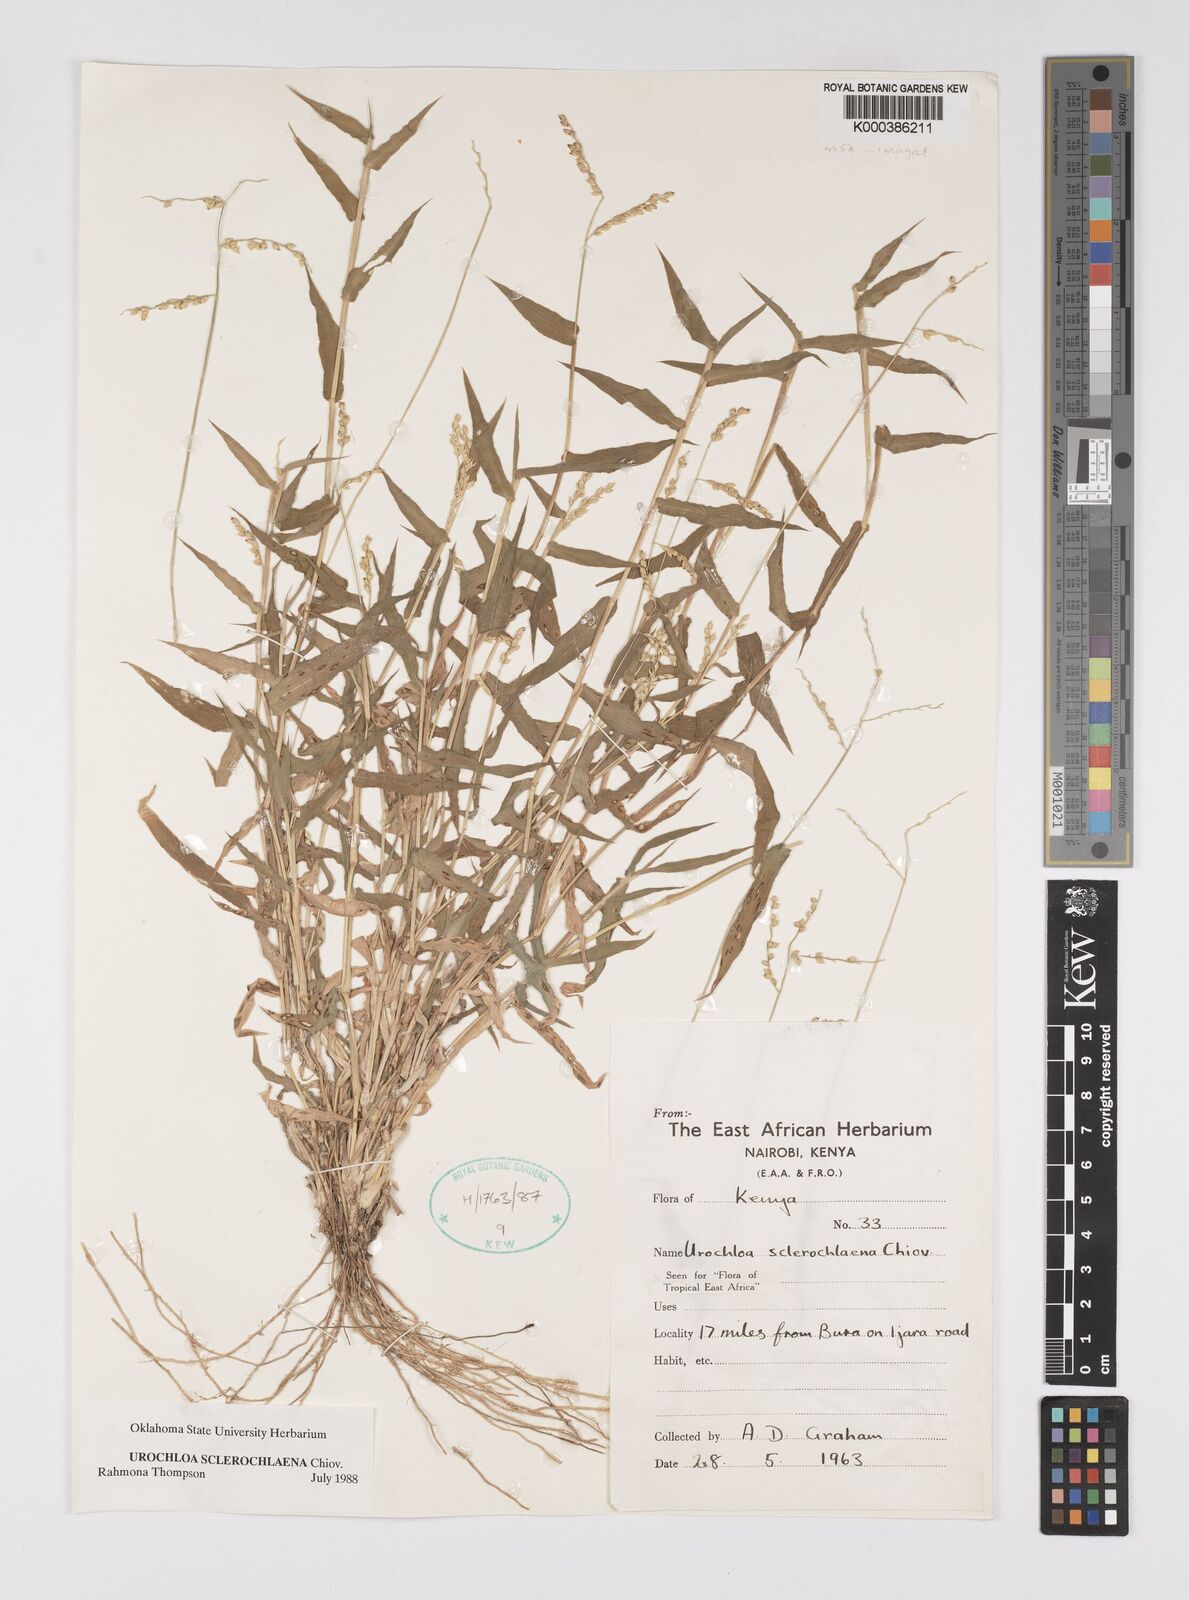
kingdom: Plantae
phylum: Tracheophyta
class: Liliopsida
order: Poales
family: Poaceae
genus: Urochloa
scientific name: Urochloa sclerochlaena
